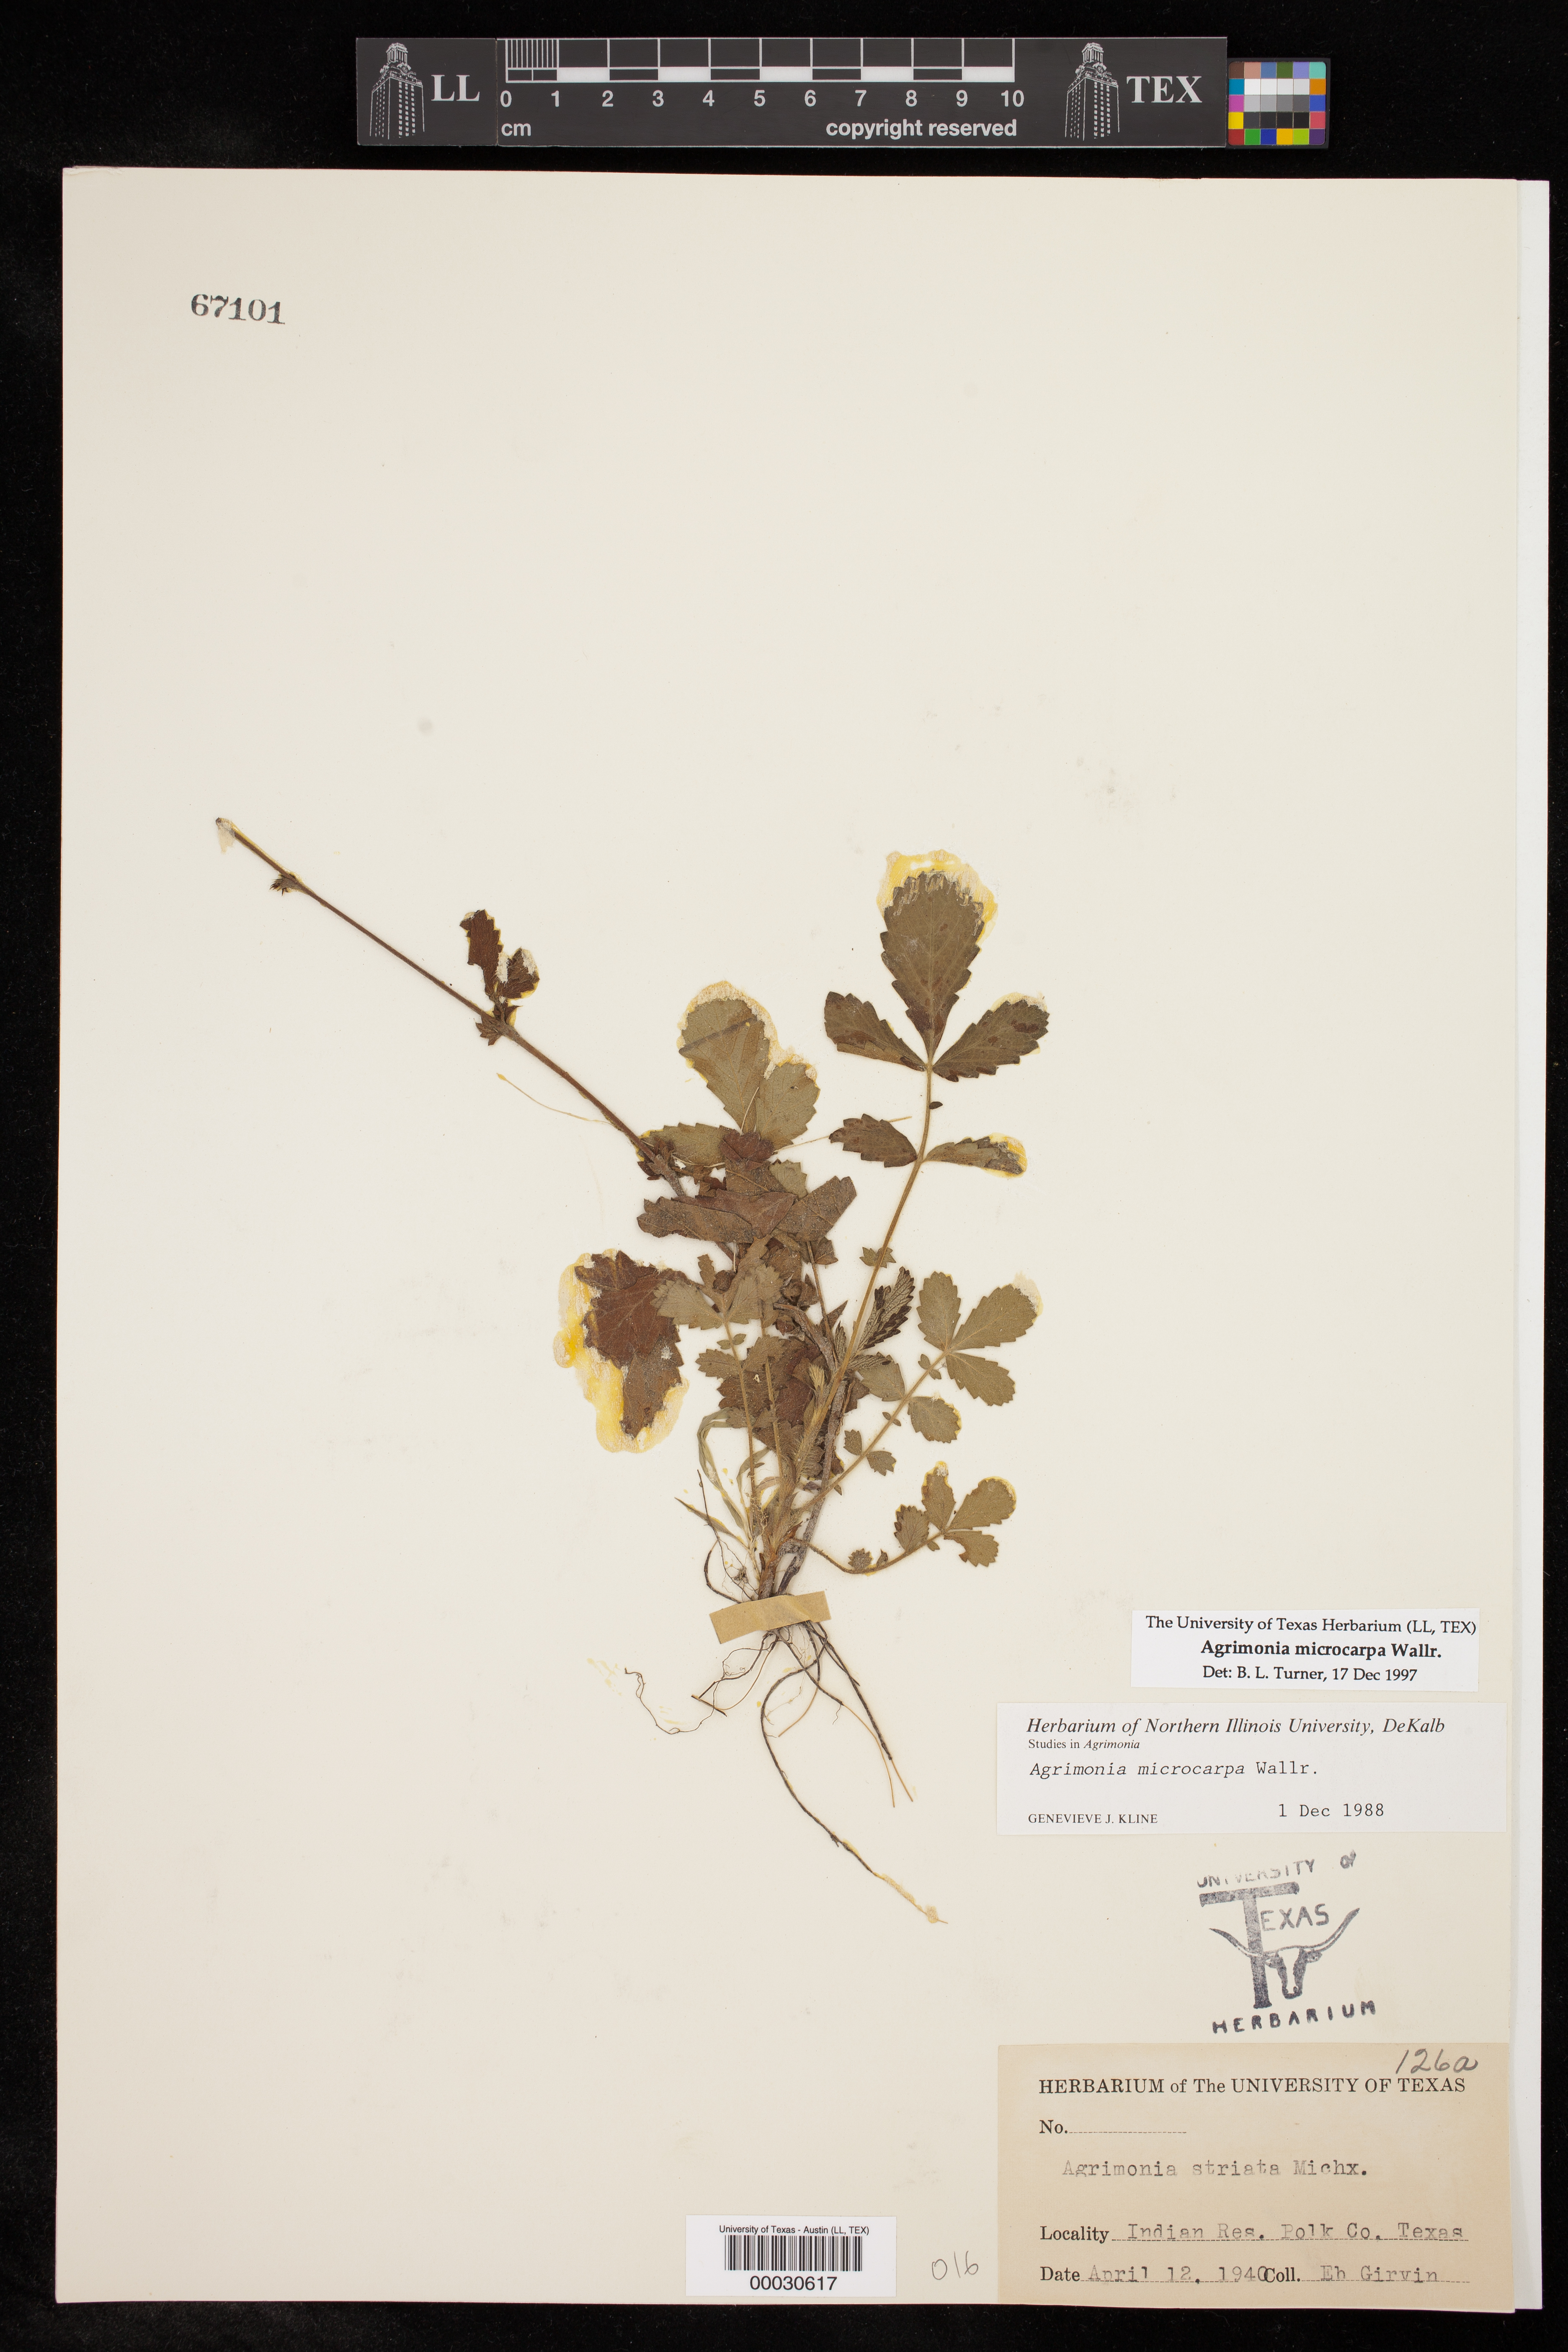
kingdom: Plantae
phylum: Tracheophyta
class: Magnoliopsida
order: Rosales
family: Rosaceae
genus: Agrimonia
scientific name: Agrimonia microcarpa
